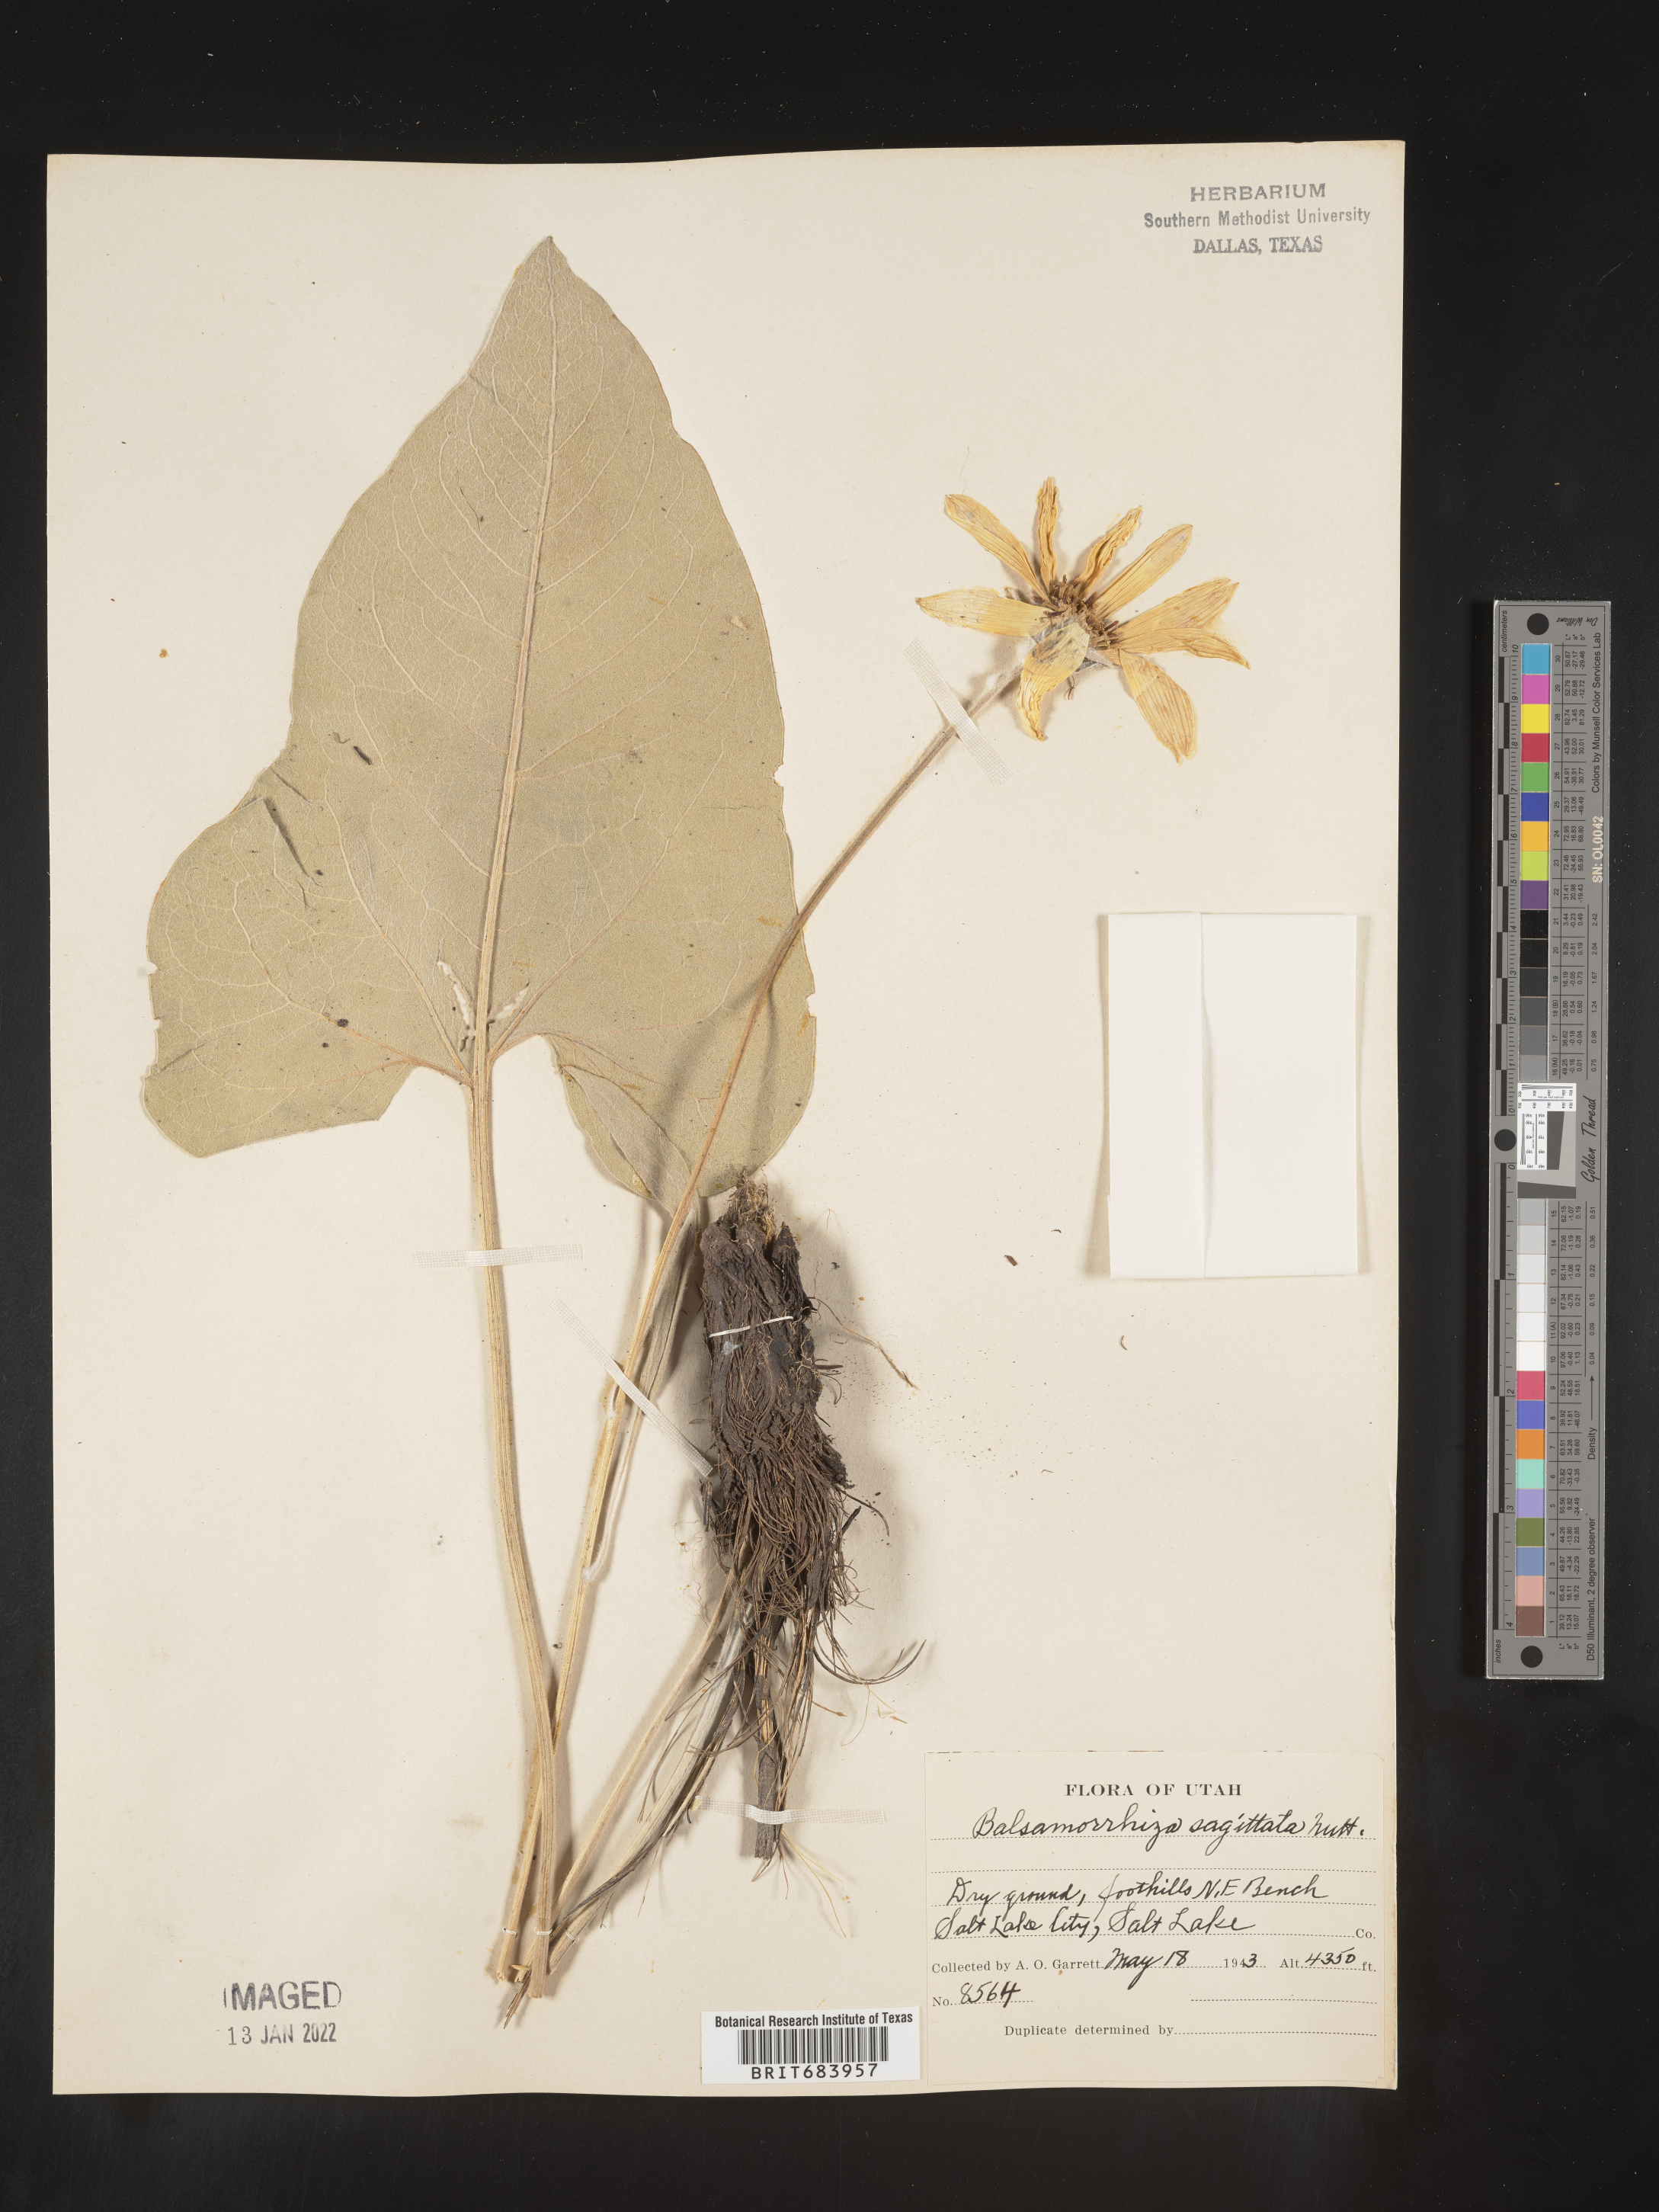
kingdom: Plantae
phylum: Tracheophyta
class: Magnoliopsida
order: Asterales
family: Asteraceae
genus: Wyethia
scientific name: Wyethia sagittata
